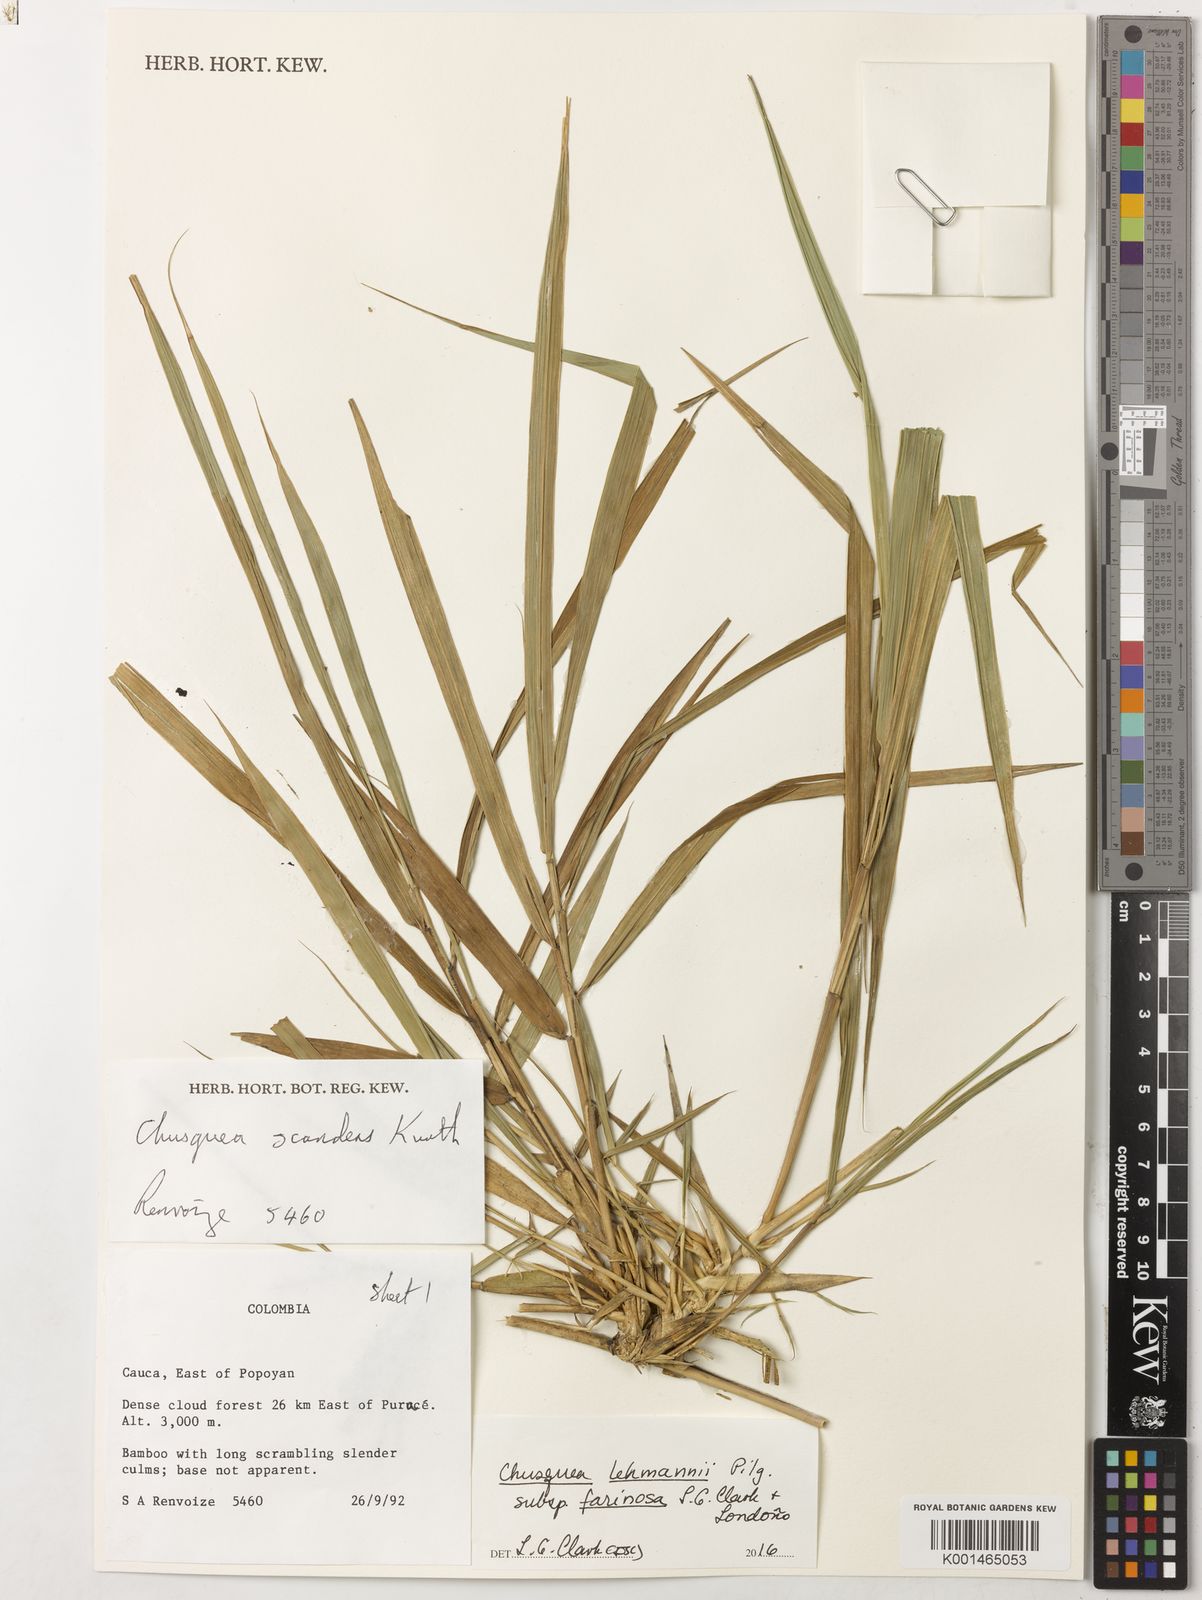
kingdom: Plantae
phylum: Tracheophyta
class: Liliopsida
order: Poales
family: Poaceae
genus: Chusquea
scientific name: Chusquea lehmannii
